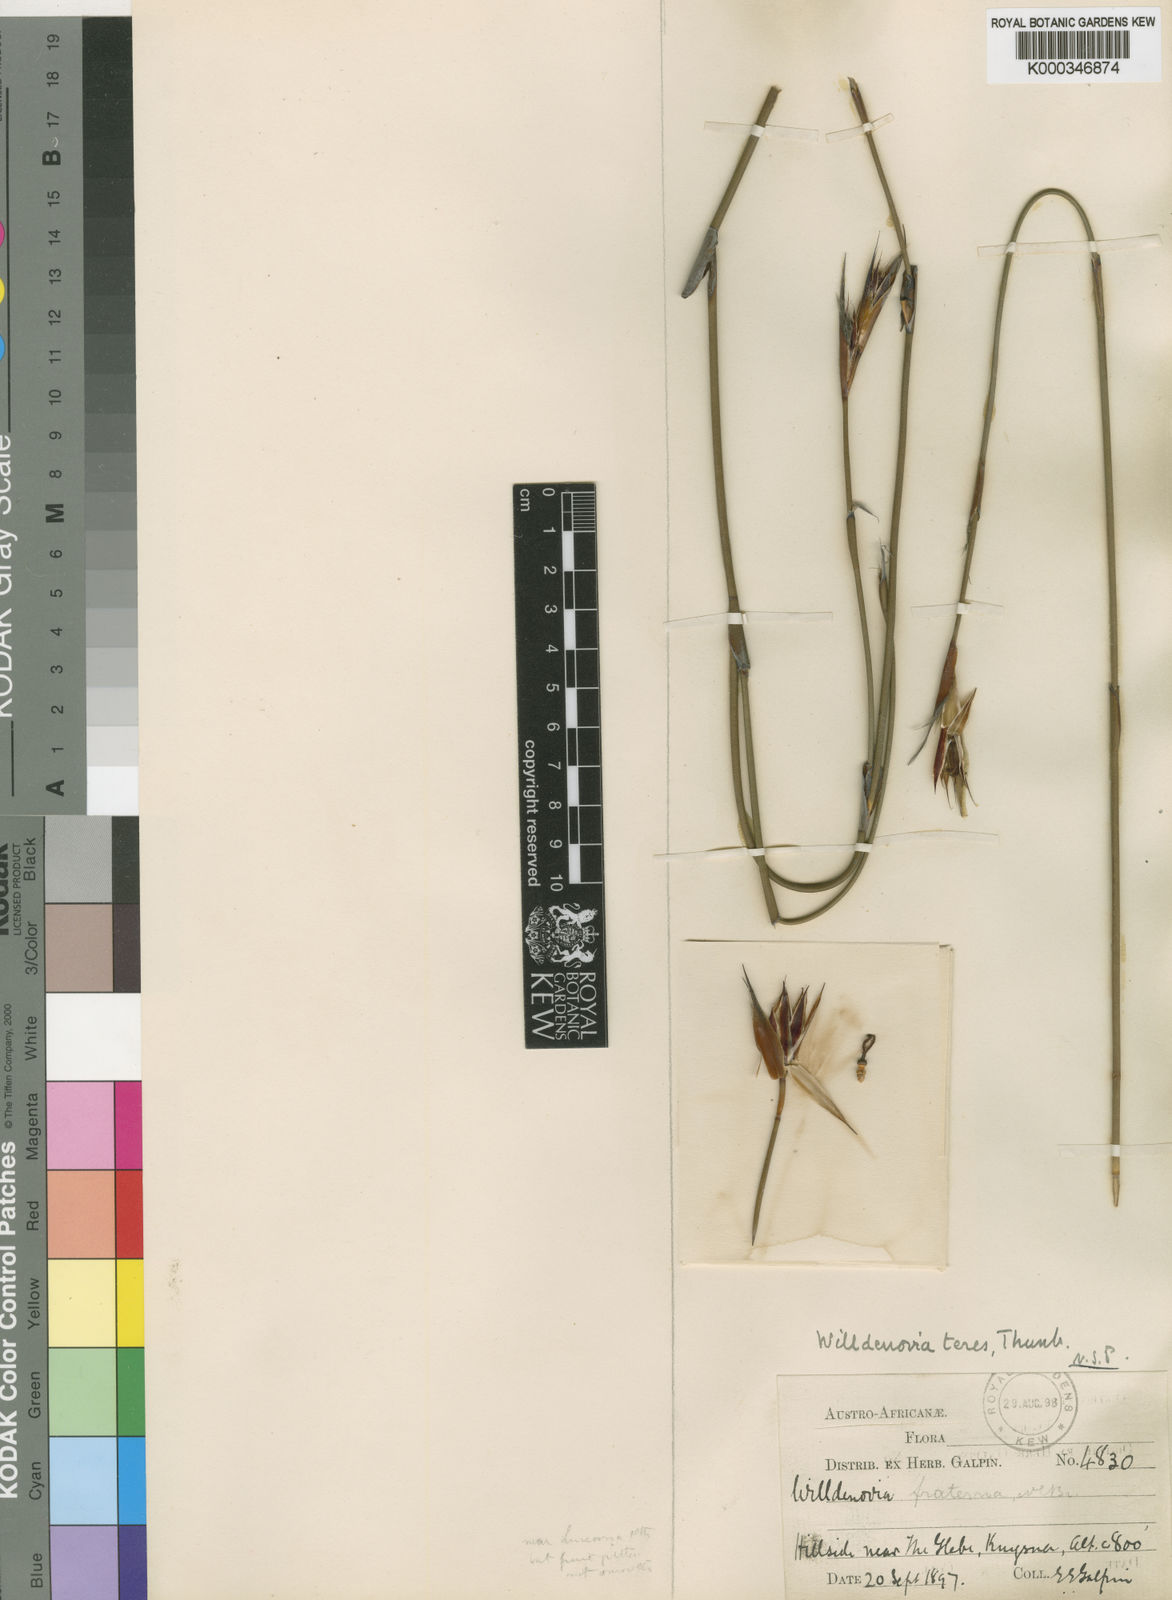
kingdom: Plantae
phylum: Tracheophyta
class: Liliopsida
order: Poales
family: Restionaceae
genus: Willdenowia
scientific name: Willdenowia teres
